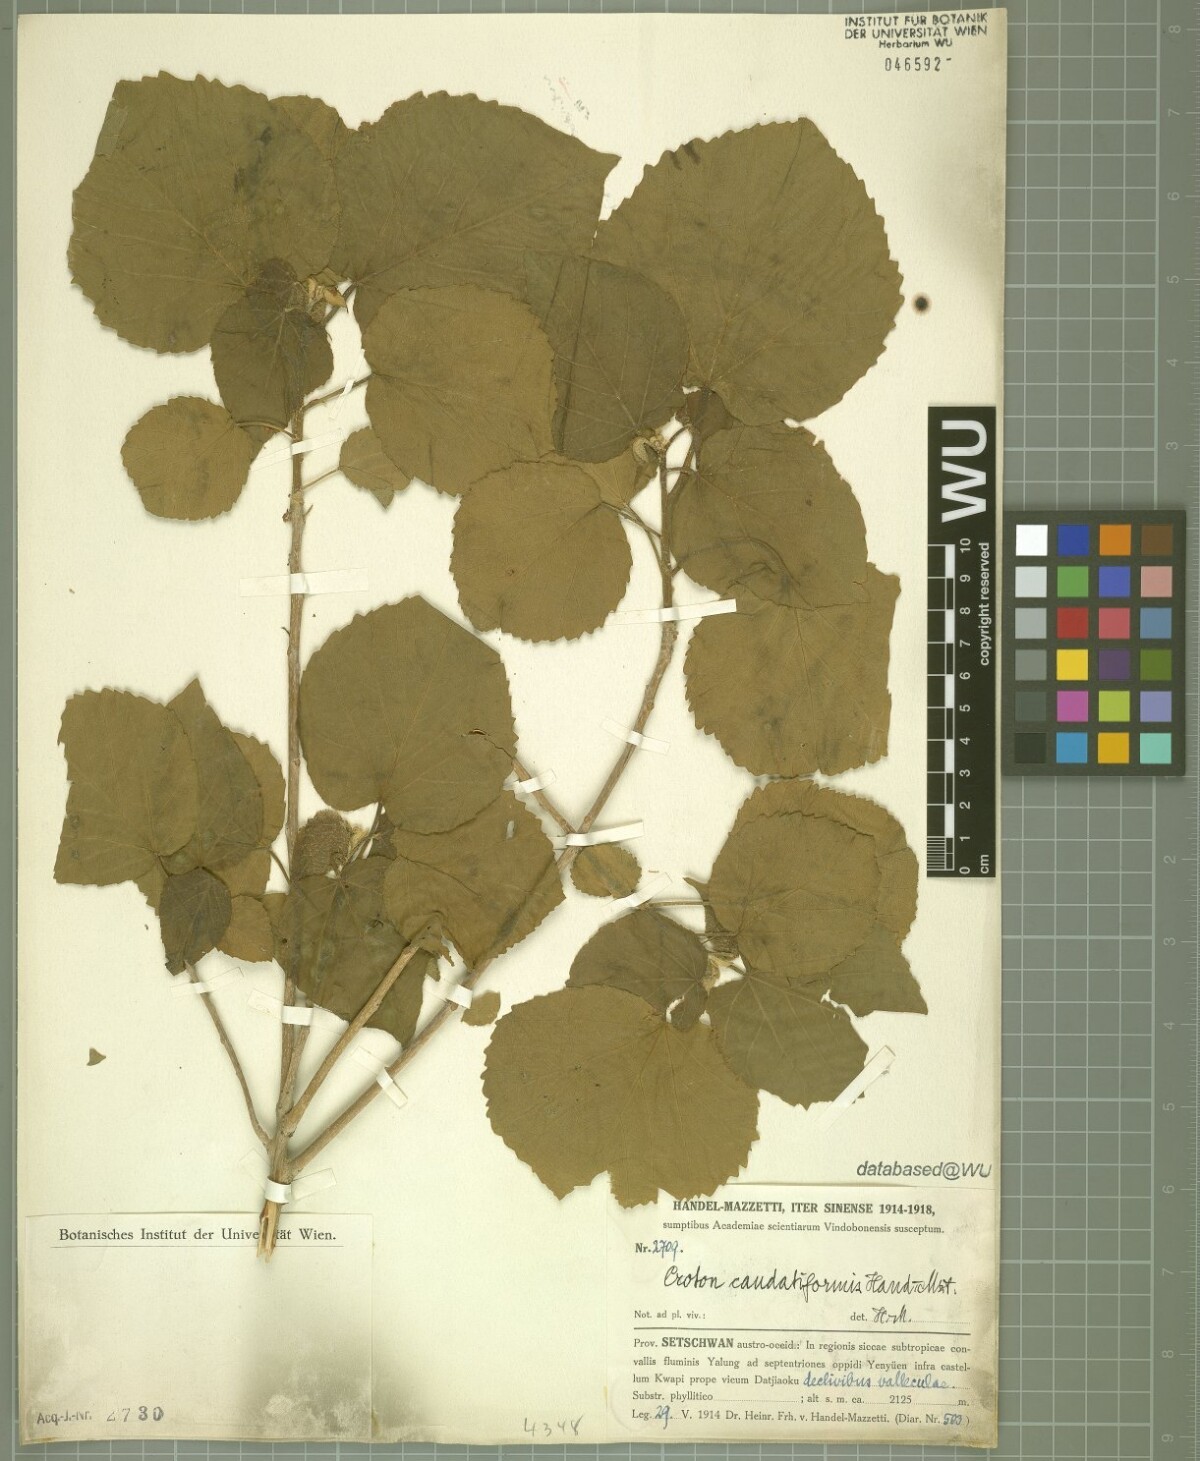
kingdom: Plantae
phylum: Tracheophyta
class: Magnoliopsida
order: Malpighiales
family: Euphorbiaceae
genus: Croton
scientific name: Croton euryphyllus
